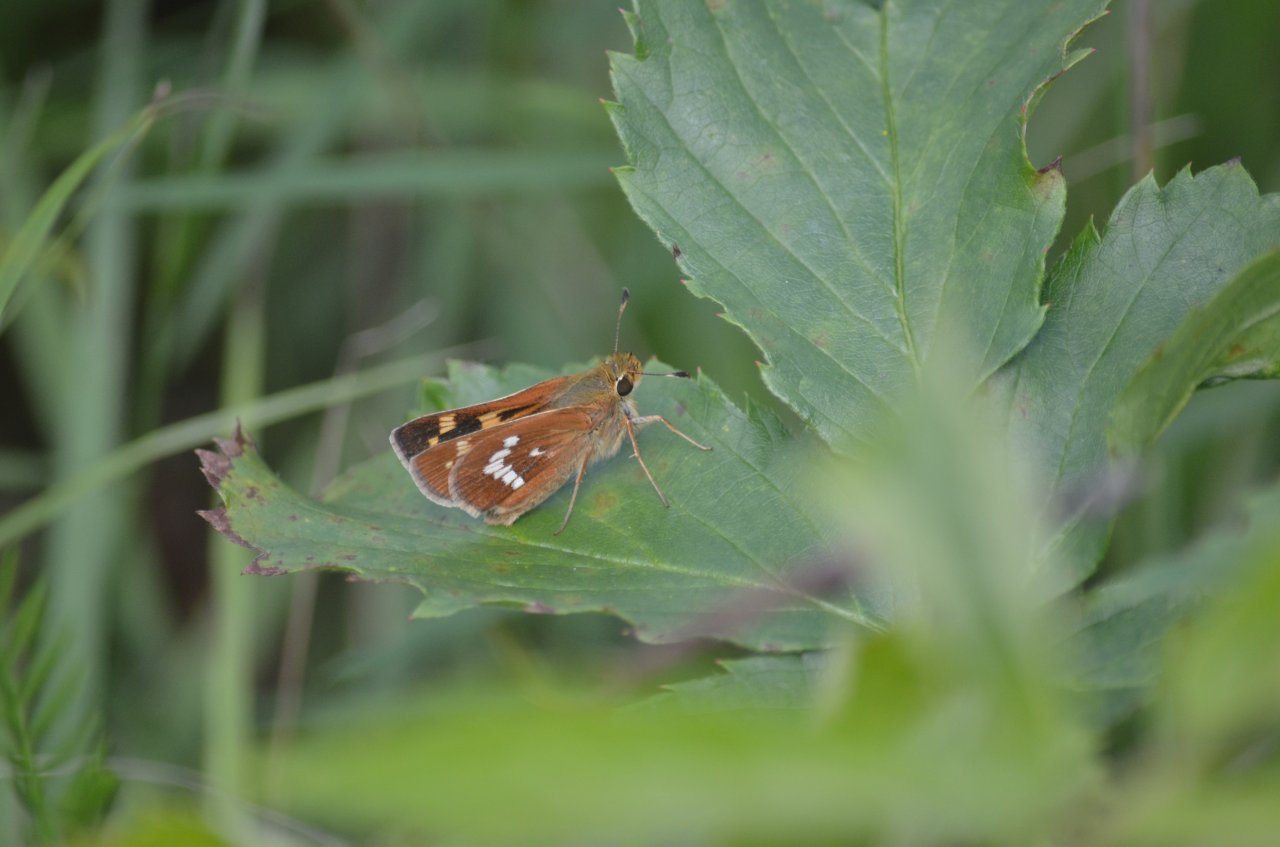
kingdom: Animalia
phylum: Arthropoda
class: Insecta
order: Lepidoptera
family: Hesperiidae
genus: Hesperia
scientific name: Hesperia leonardus
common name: Leonard's Skipper
